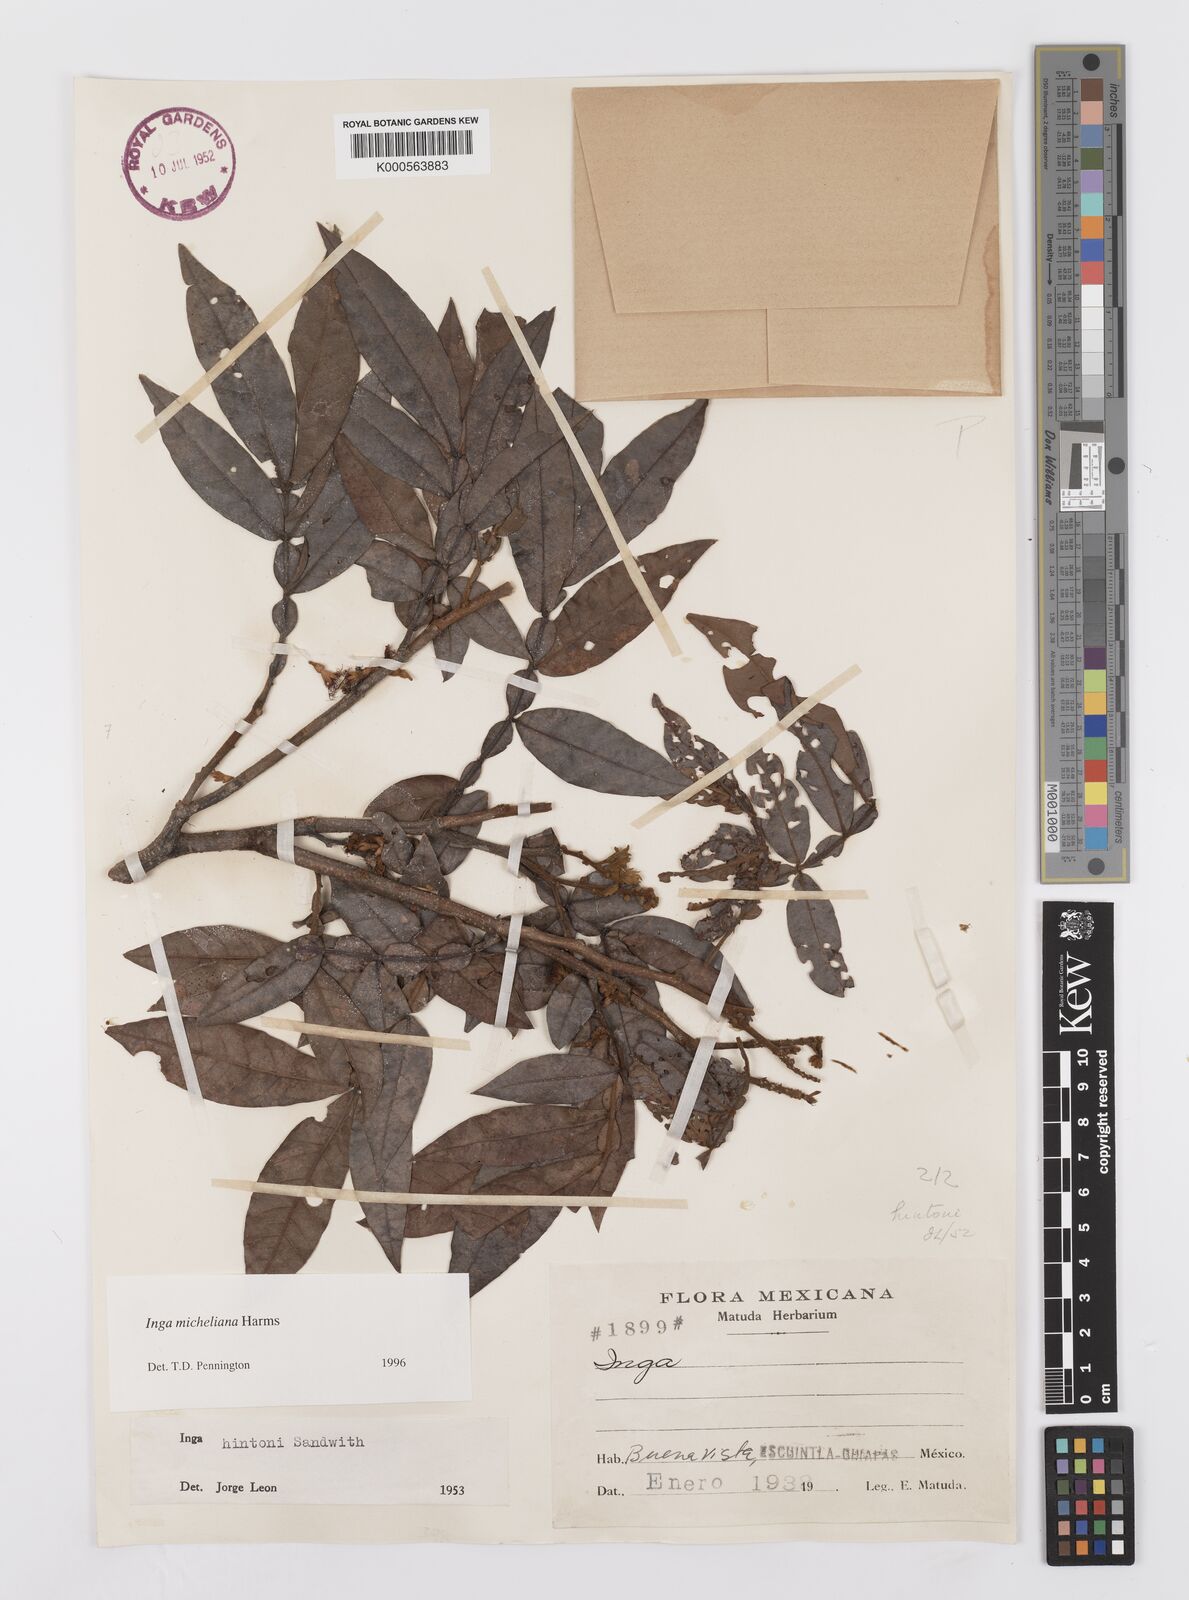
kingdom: Plantae
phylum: Tracheophyta
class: Magnoliopsida
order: Fabales
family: Fabaceae
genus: Inga
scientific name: Inga flexuosa
